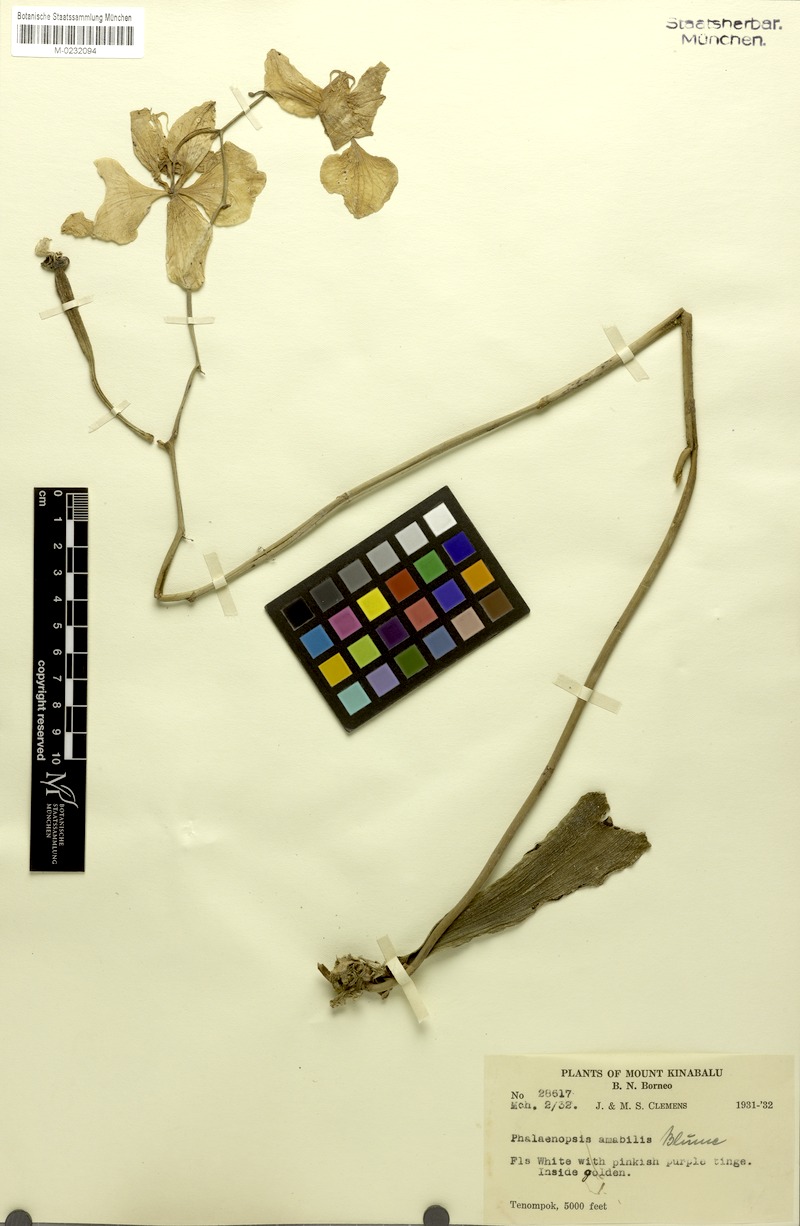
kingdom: Plantae
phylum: Tracheophyta
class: Liliopsida
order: Asparagales
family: Orchidaceae
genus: Phalaenopsis
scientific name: Phalaenopsis amabilis
